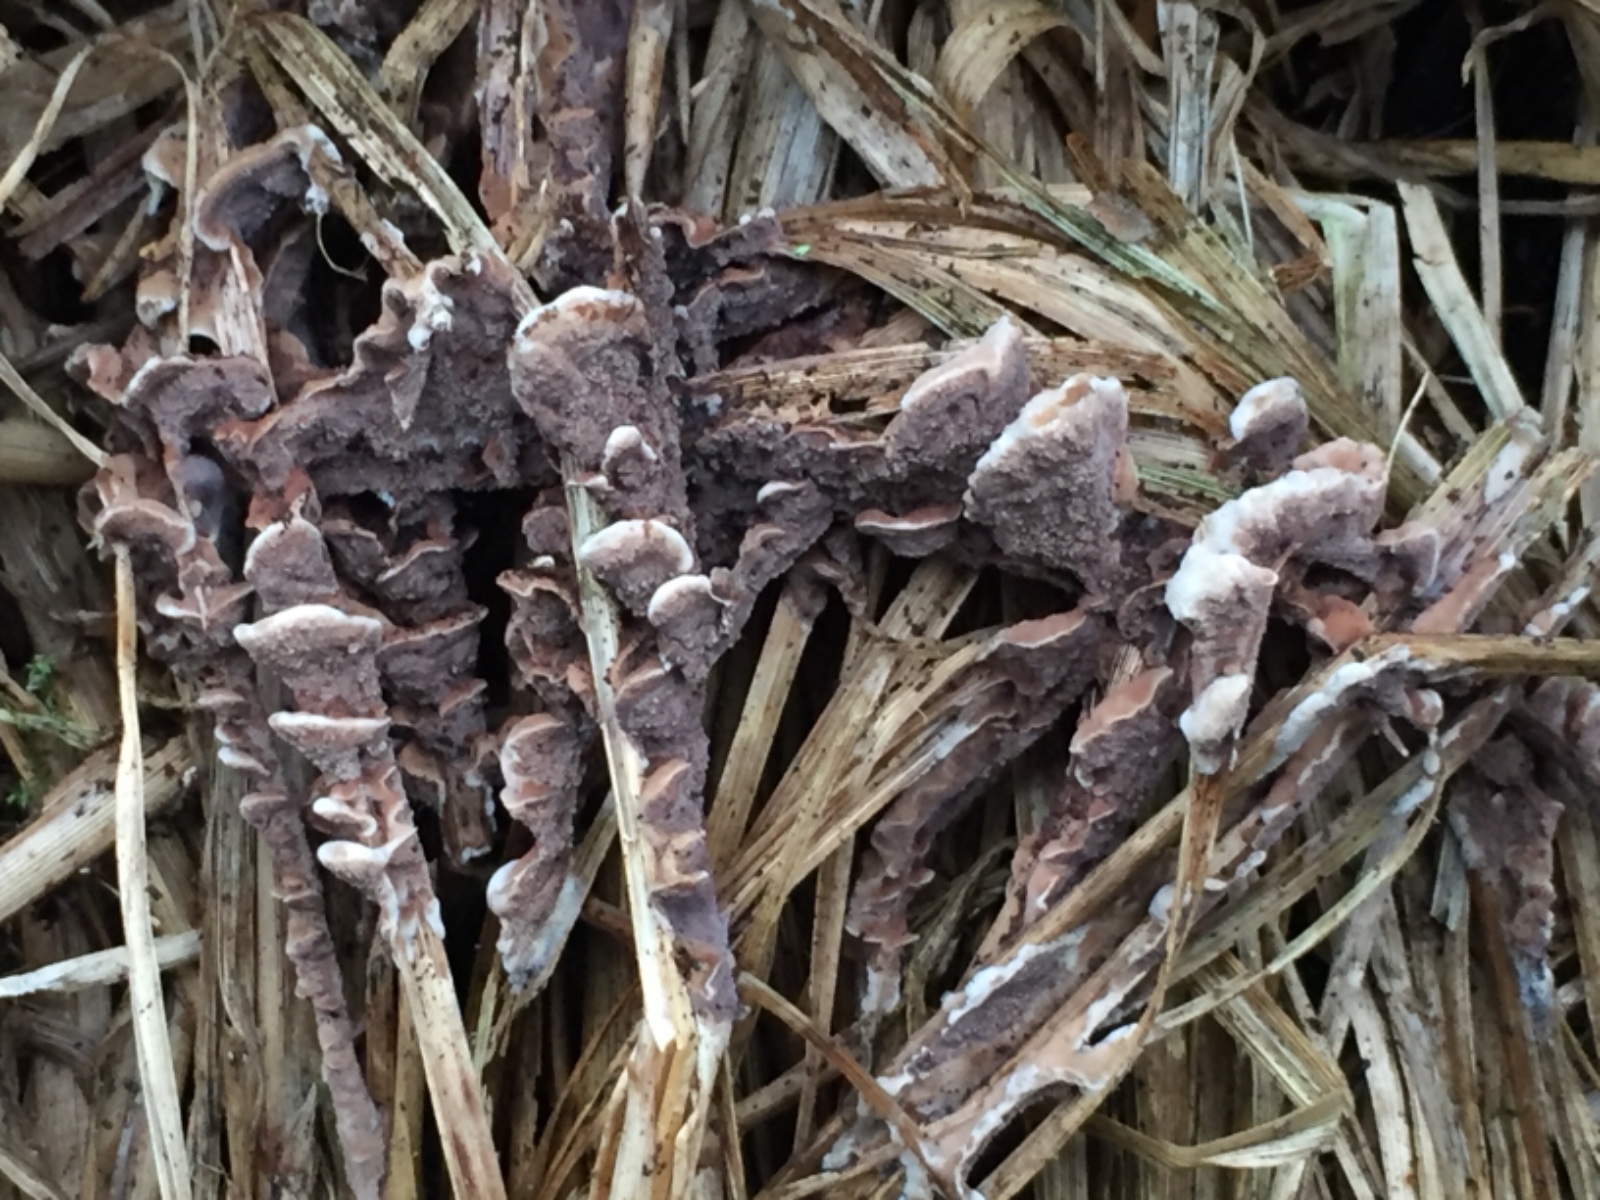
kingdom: Fungi
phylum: Basidiomycota
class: Agaricomycetes
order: Thelephorales
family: Thelephoraceae
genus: Thelephora
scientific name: Thelephora terrestris
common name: fliget frynsesvamp
